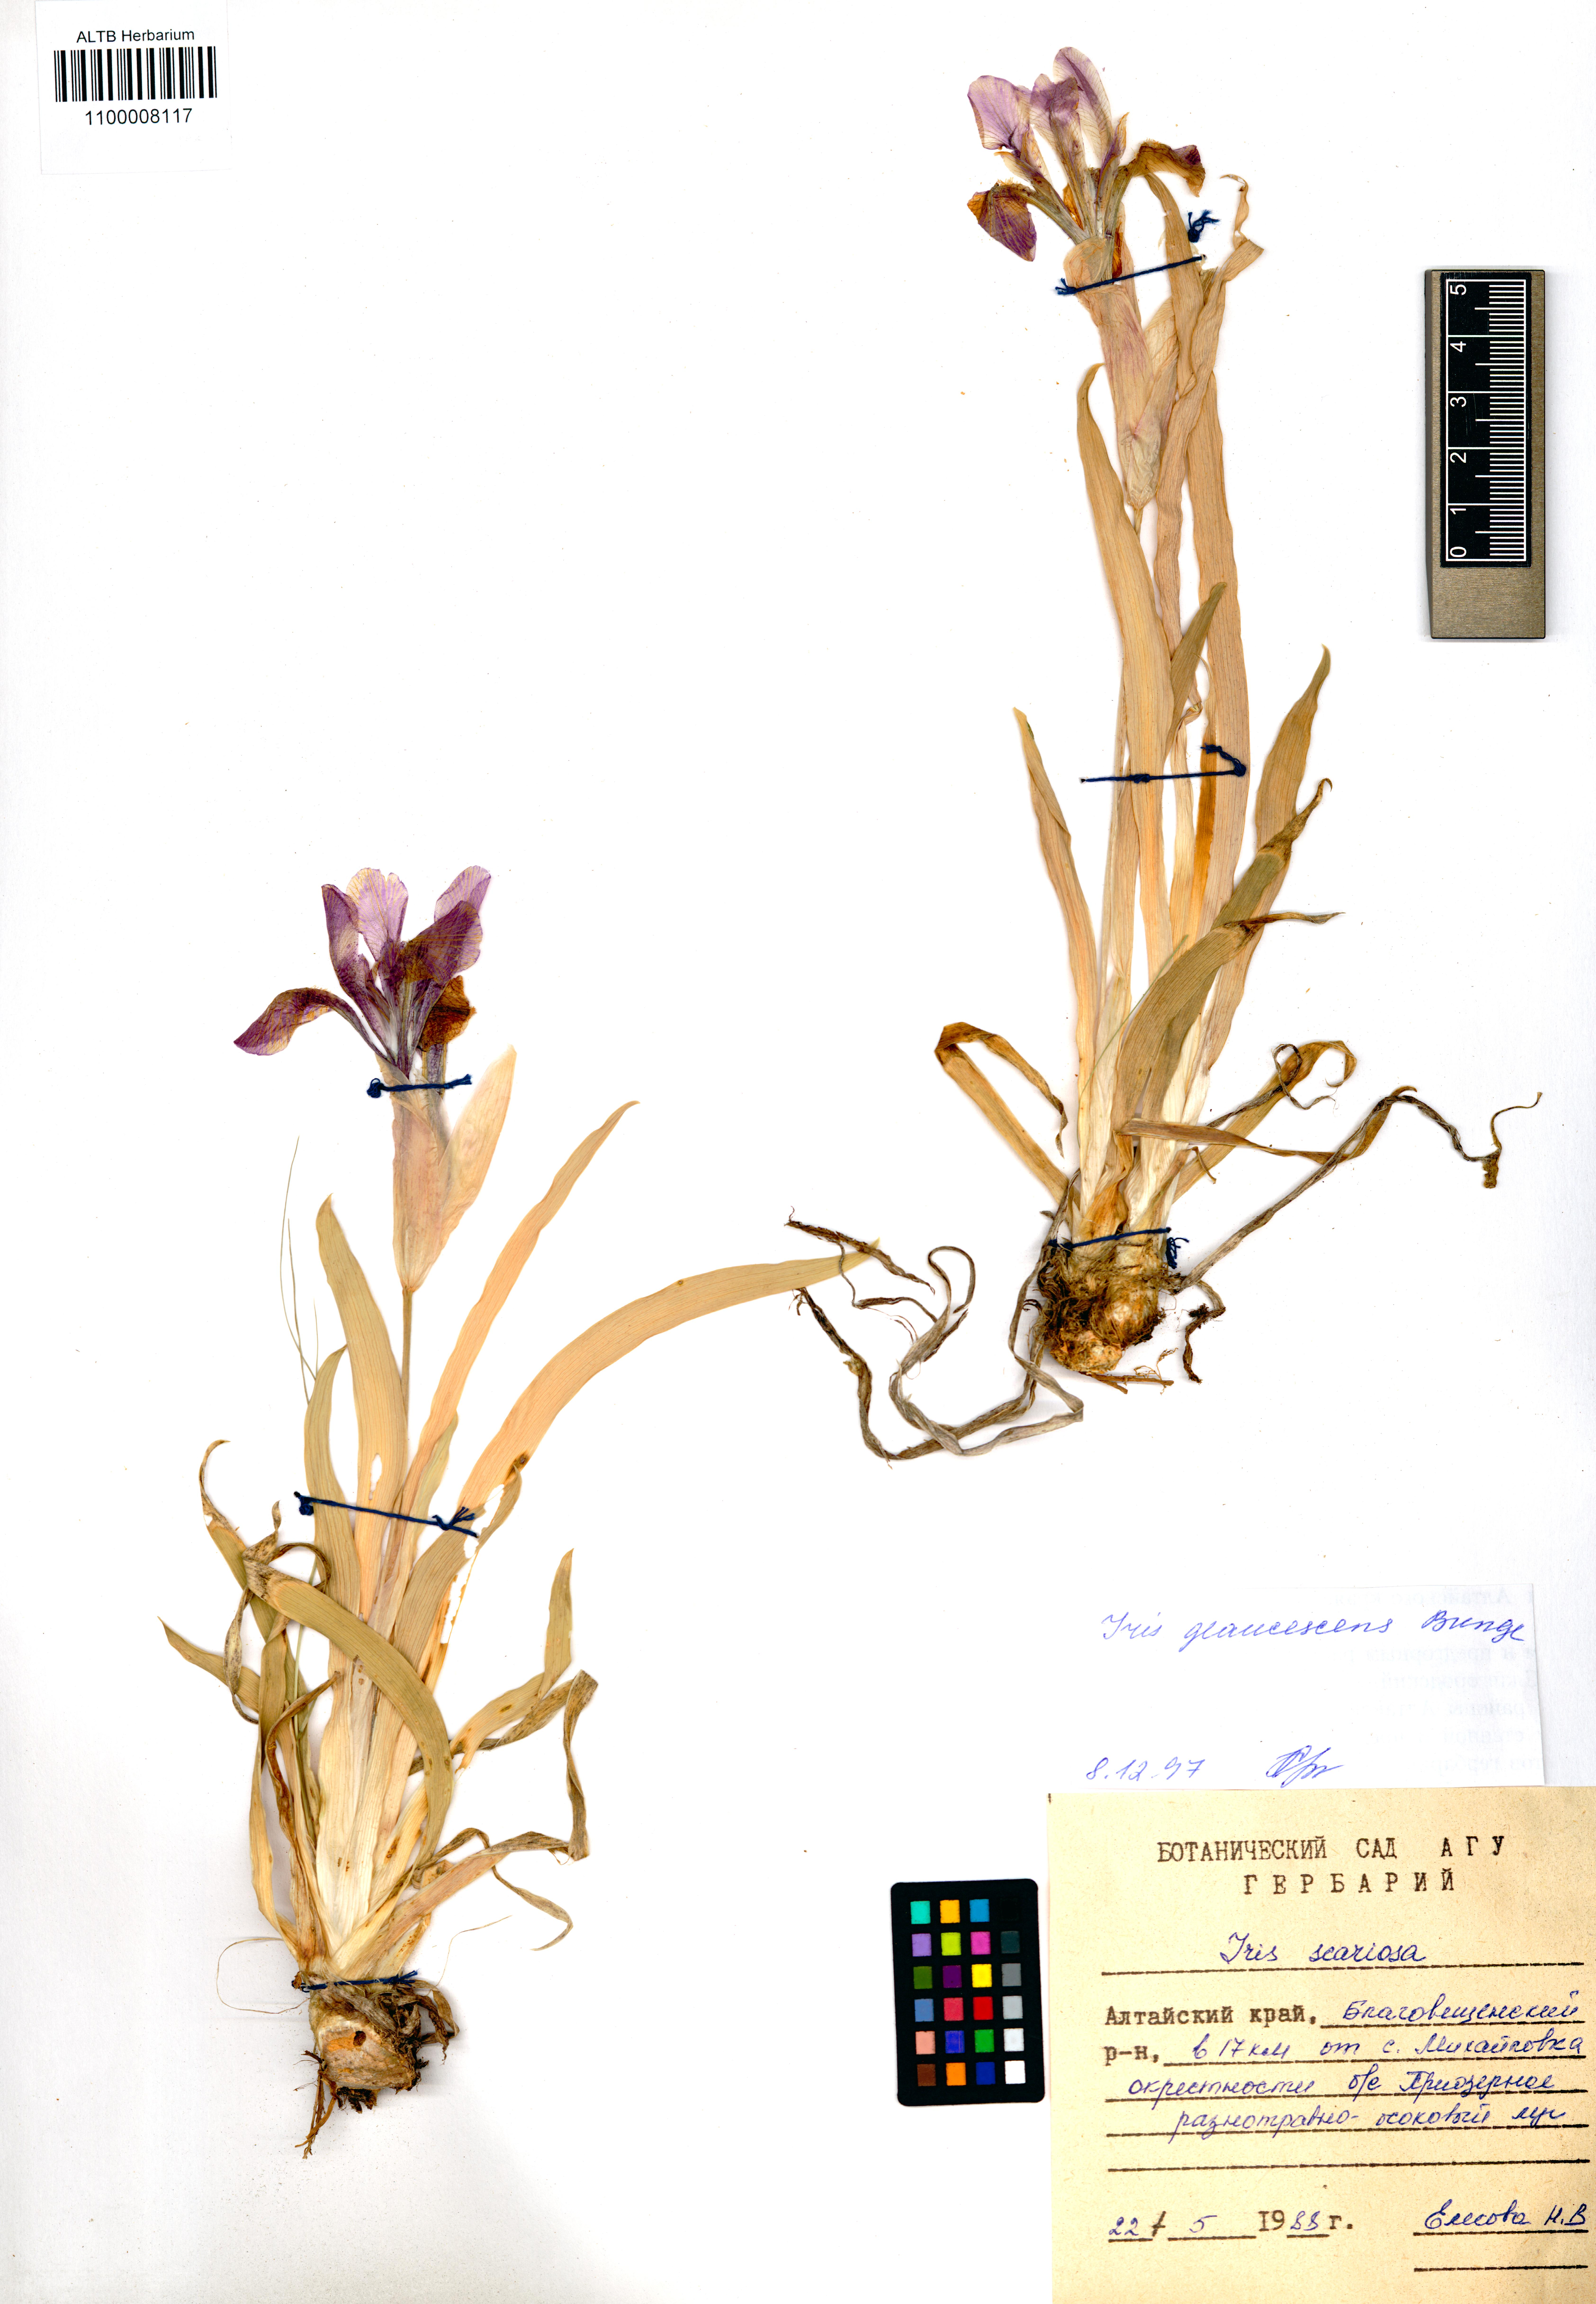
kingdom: Plantae
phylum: Tracheophyta
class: Liliopsida
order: Asparagales
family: Iridaceae
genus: Iris
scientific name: Iris glaucescens
